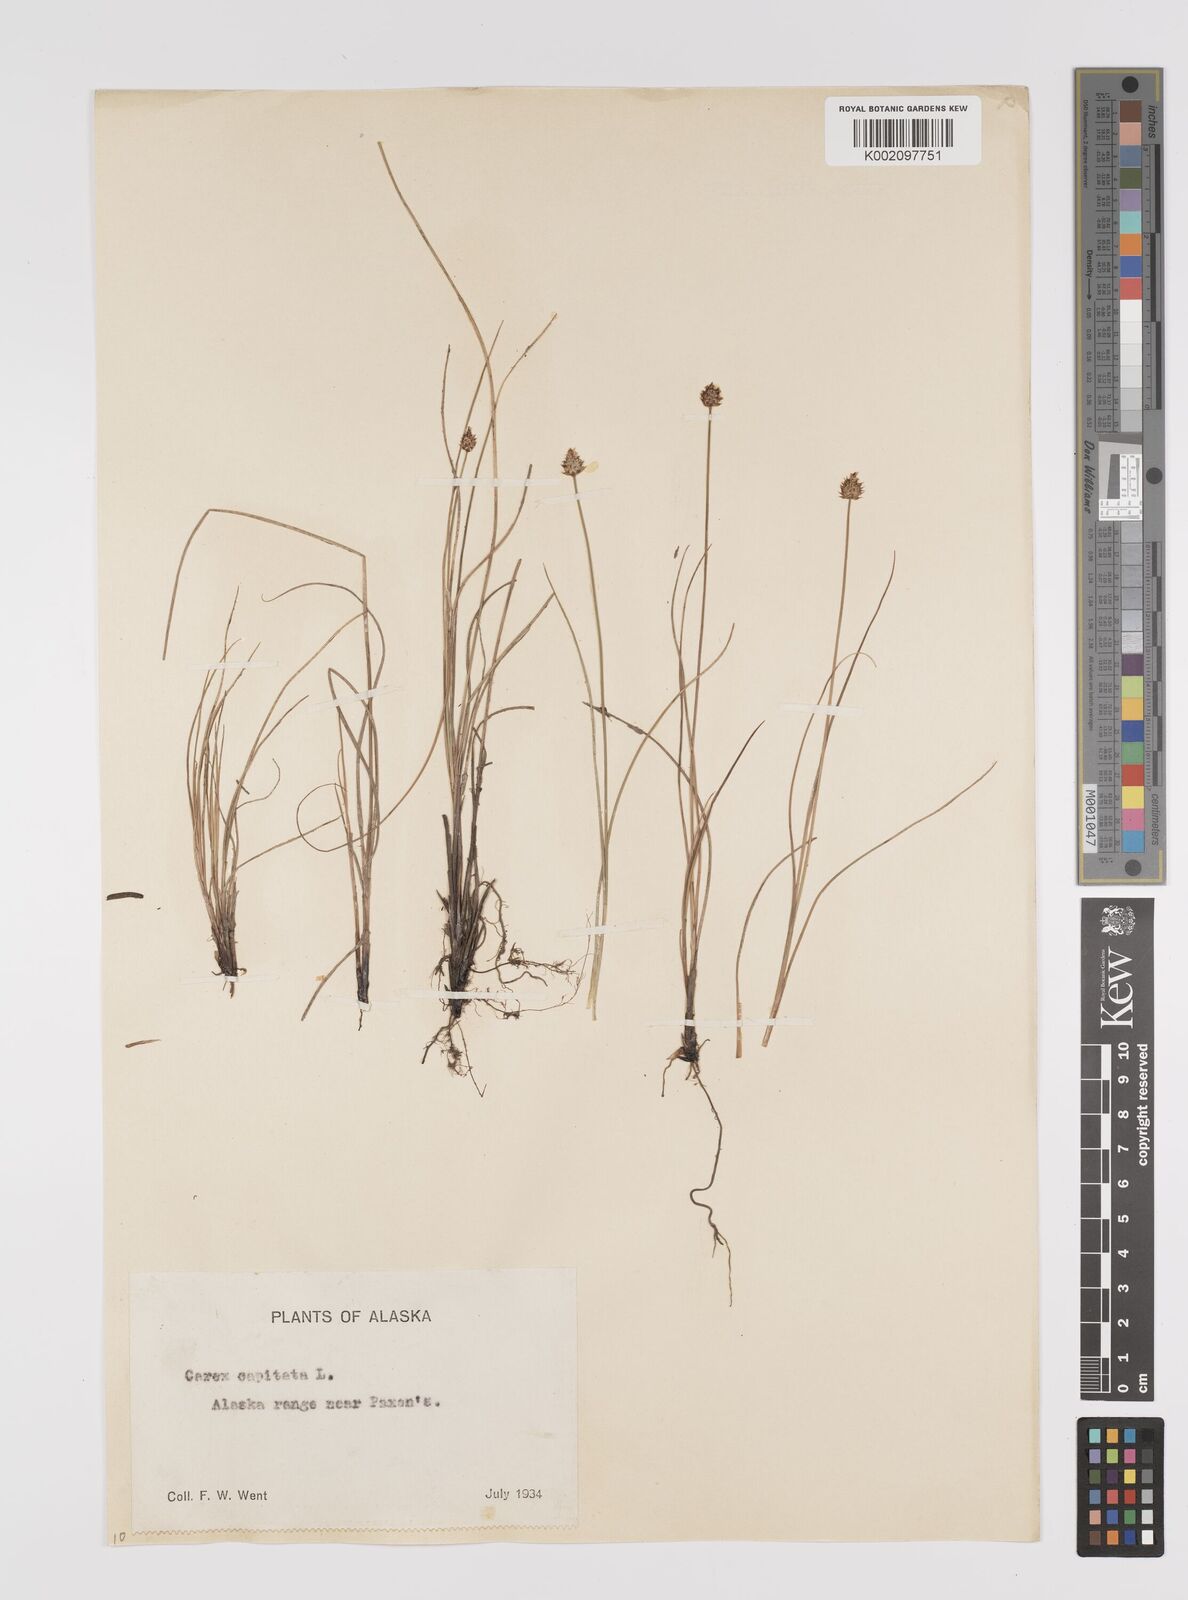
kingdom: Plantae
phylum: Tracheophyta
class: Liliopsida
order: Poales
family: Cyperaceae
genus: Carex
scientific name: Carex capitata
